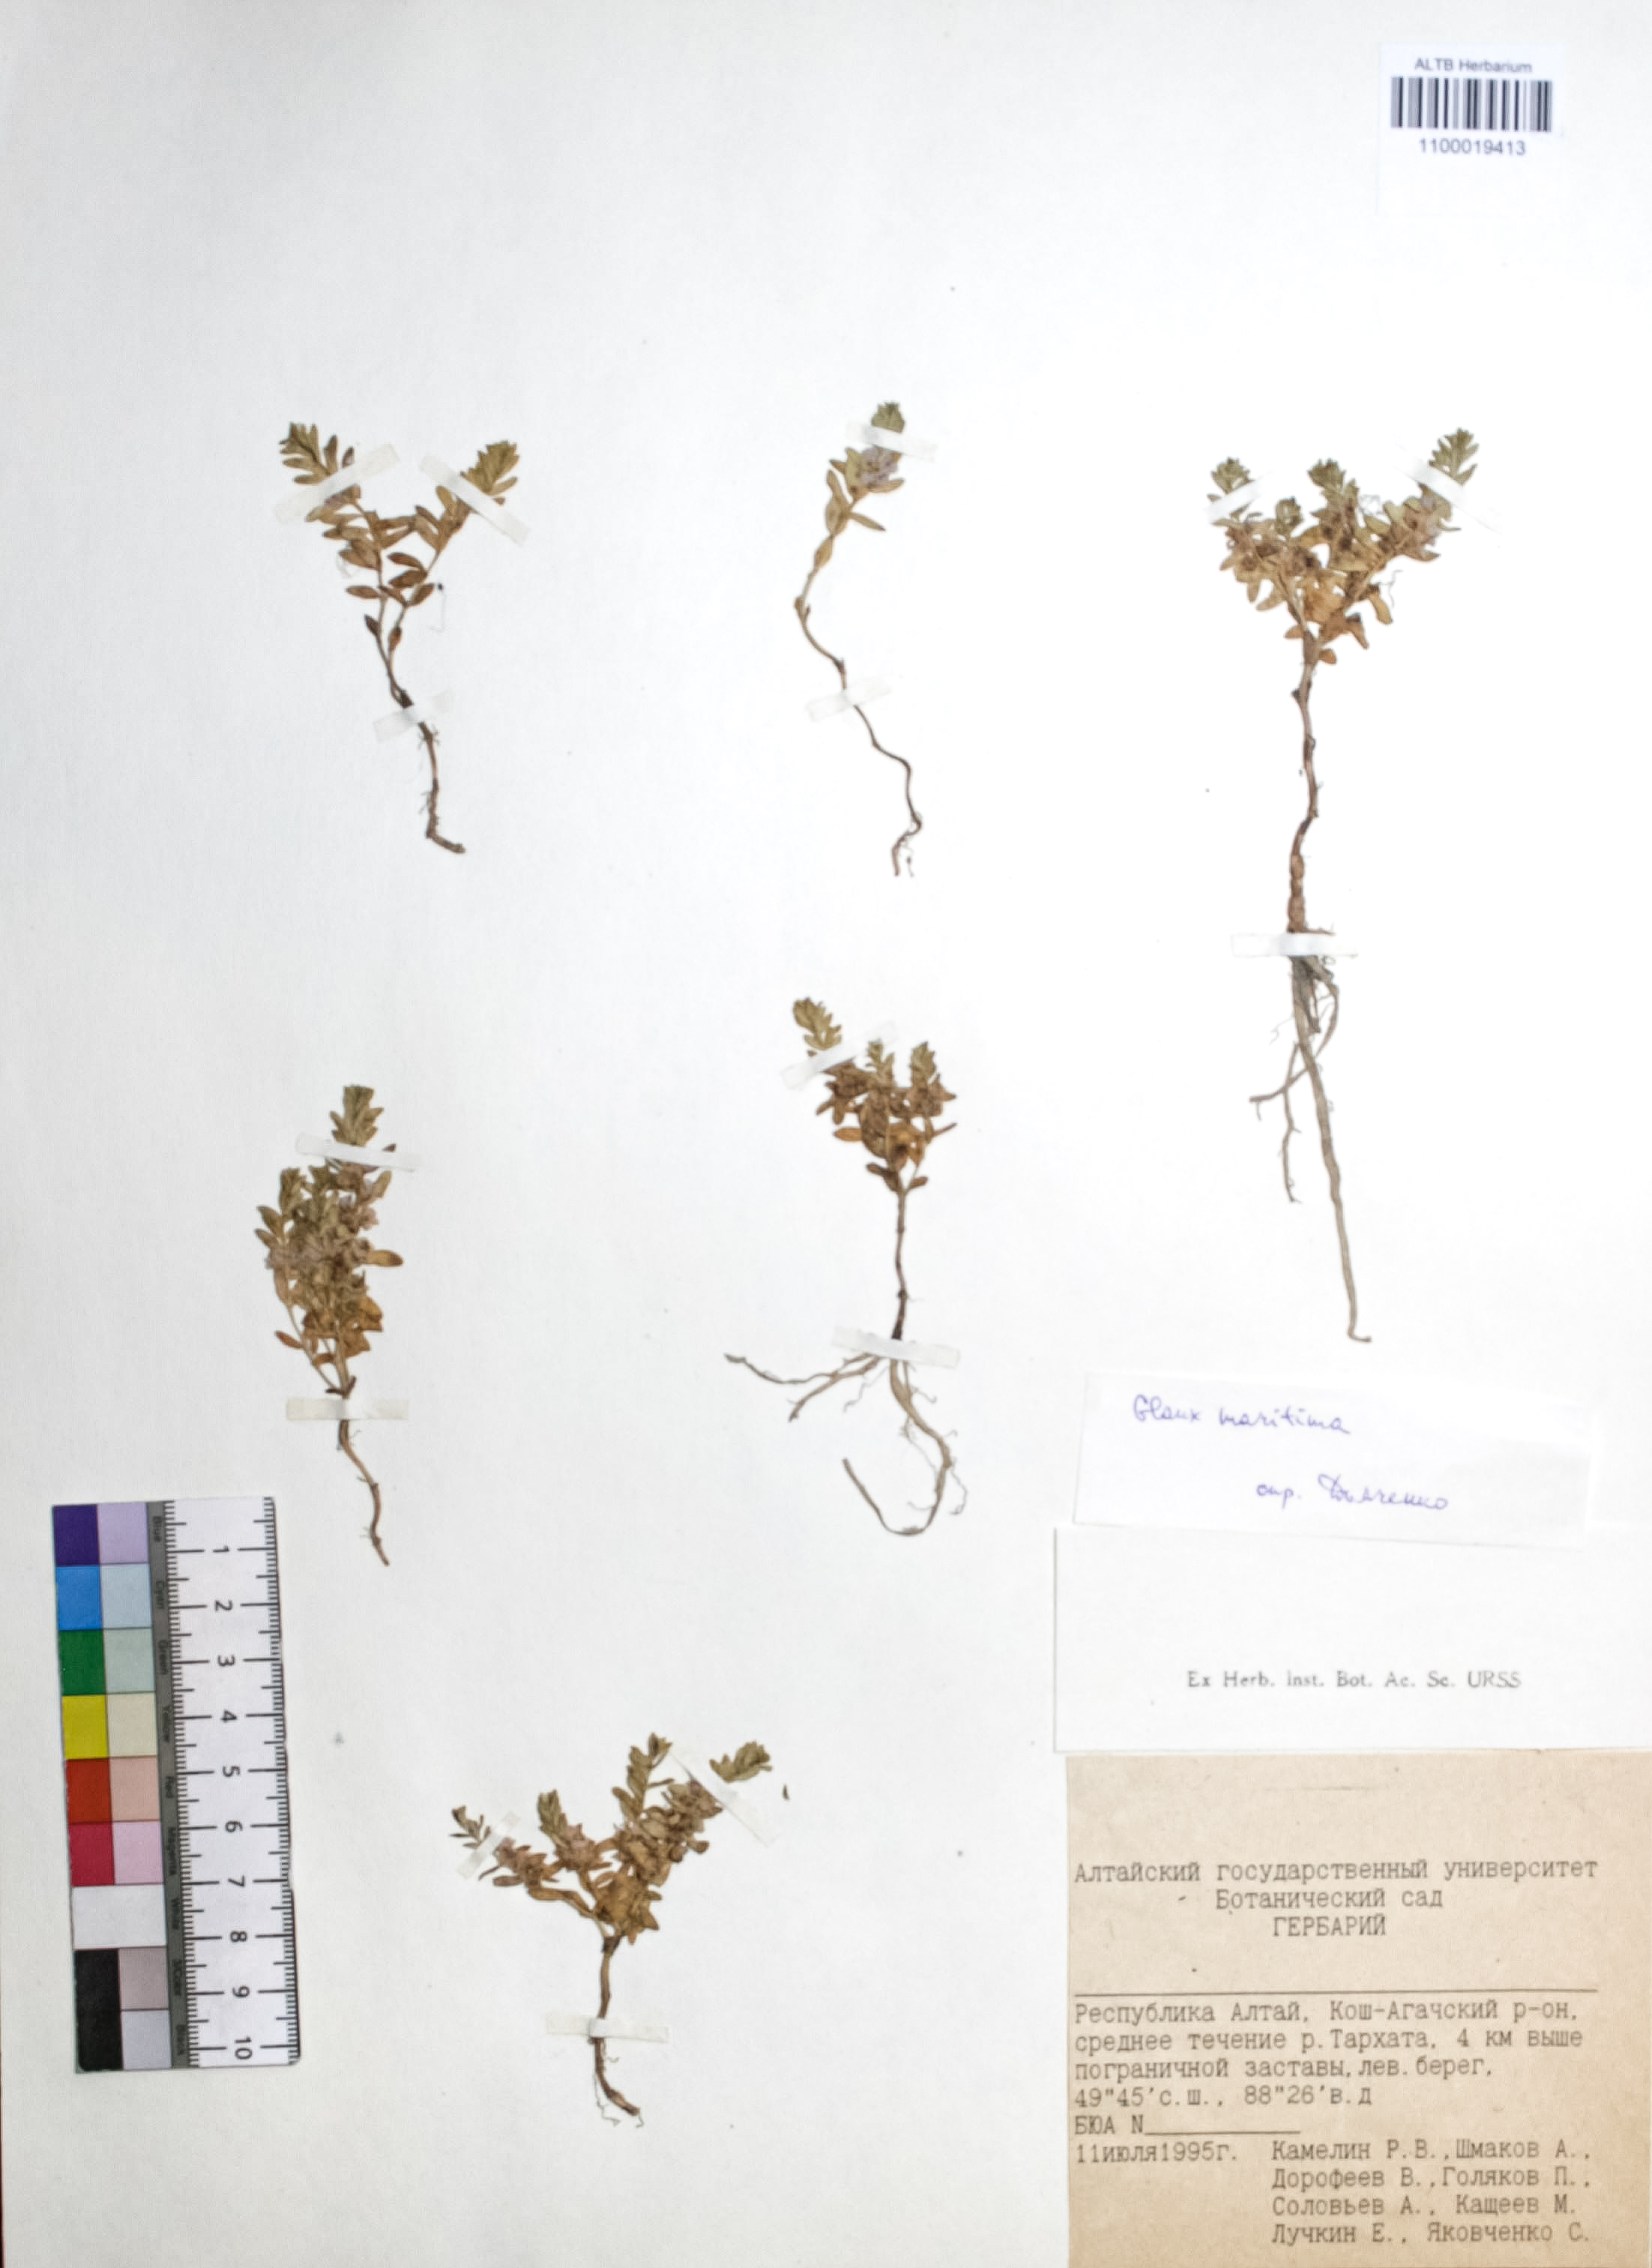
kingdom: Plantae
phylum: Tracheophyta
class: Magnoliopsida
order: Ericales
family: Primulaceae
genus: Lysimachia
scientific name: Lysimachia maritima
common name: Sea milkwort
